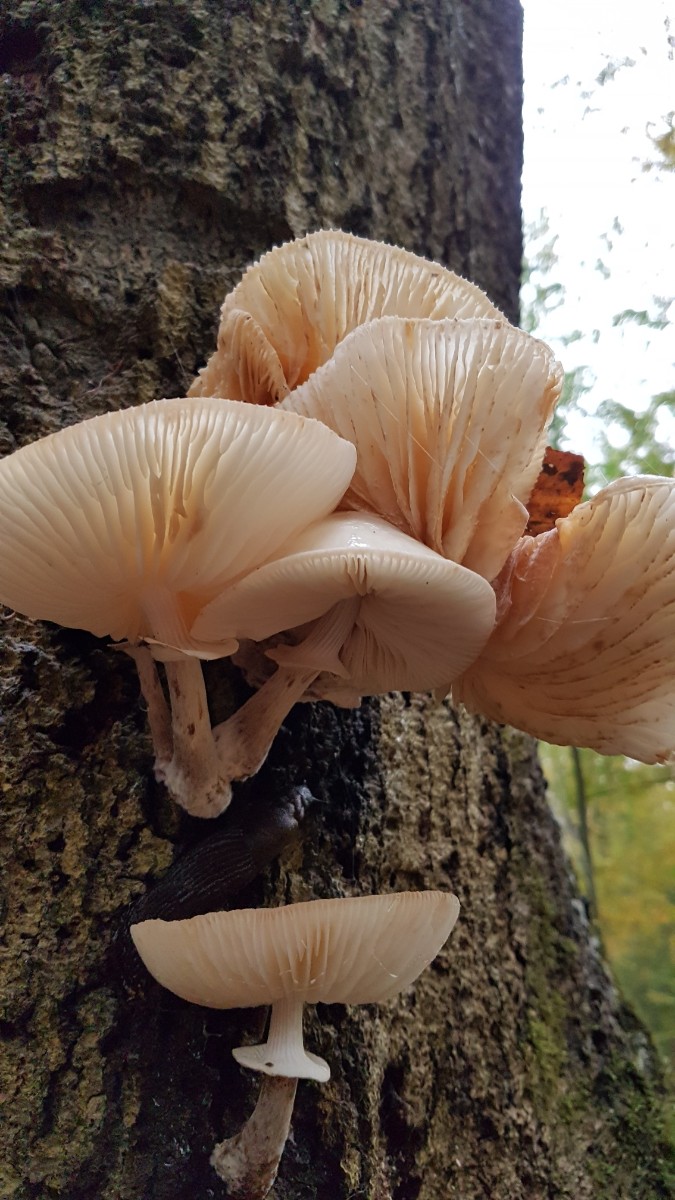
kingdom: Fungi
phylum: Basidiomycota
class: Agaricomycetes
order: Agaricales
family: Physalacriaceae
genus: Mucidula
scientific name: Mucidula mucida
